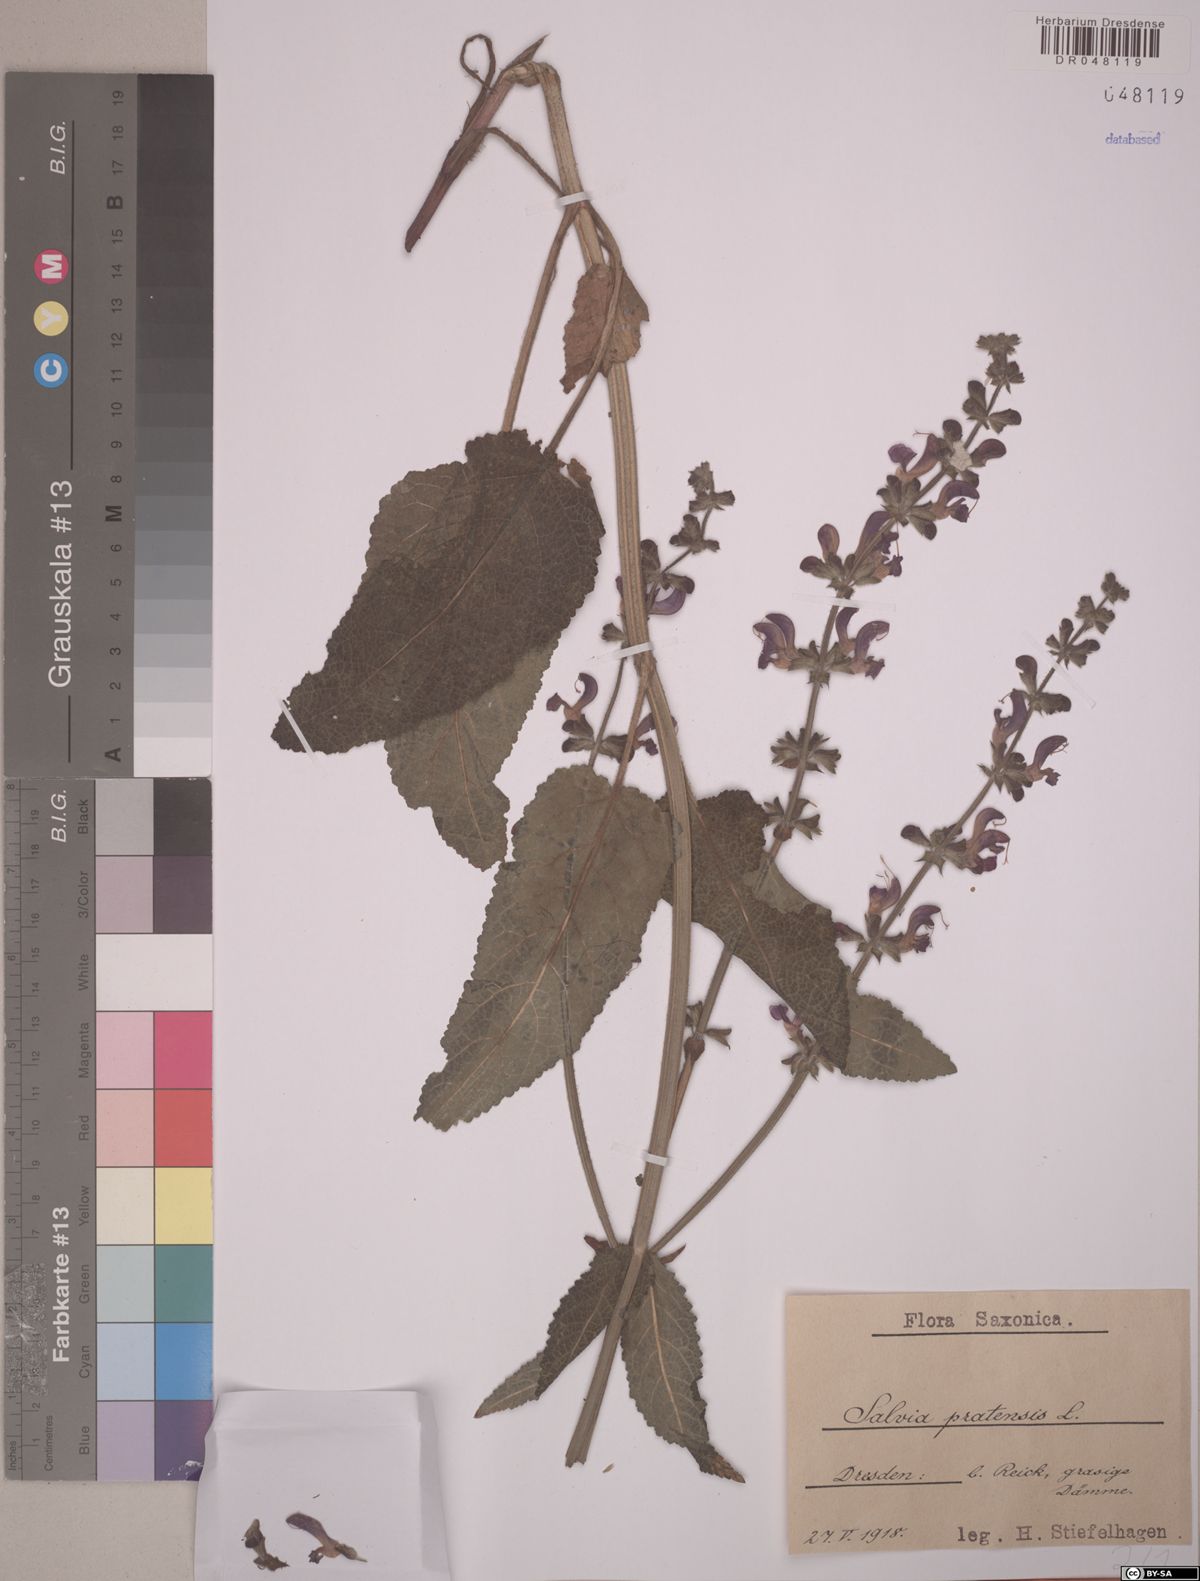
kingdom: Plantae
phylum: Tracheophyta
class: Magnoliopsida
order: Lamiales
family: Lamiaceae
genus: Salvia
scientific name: Salvia pratensis
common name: Meadow sage
